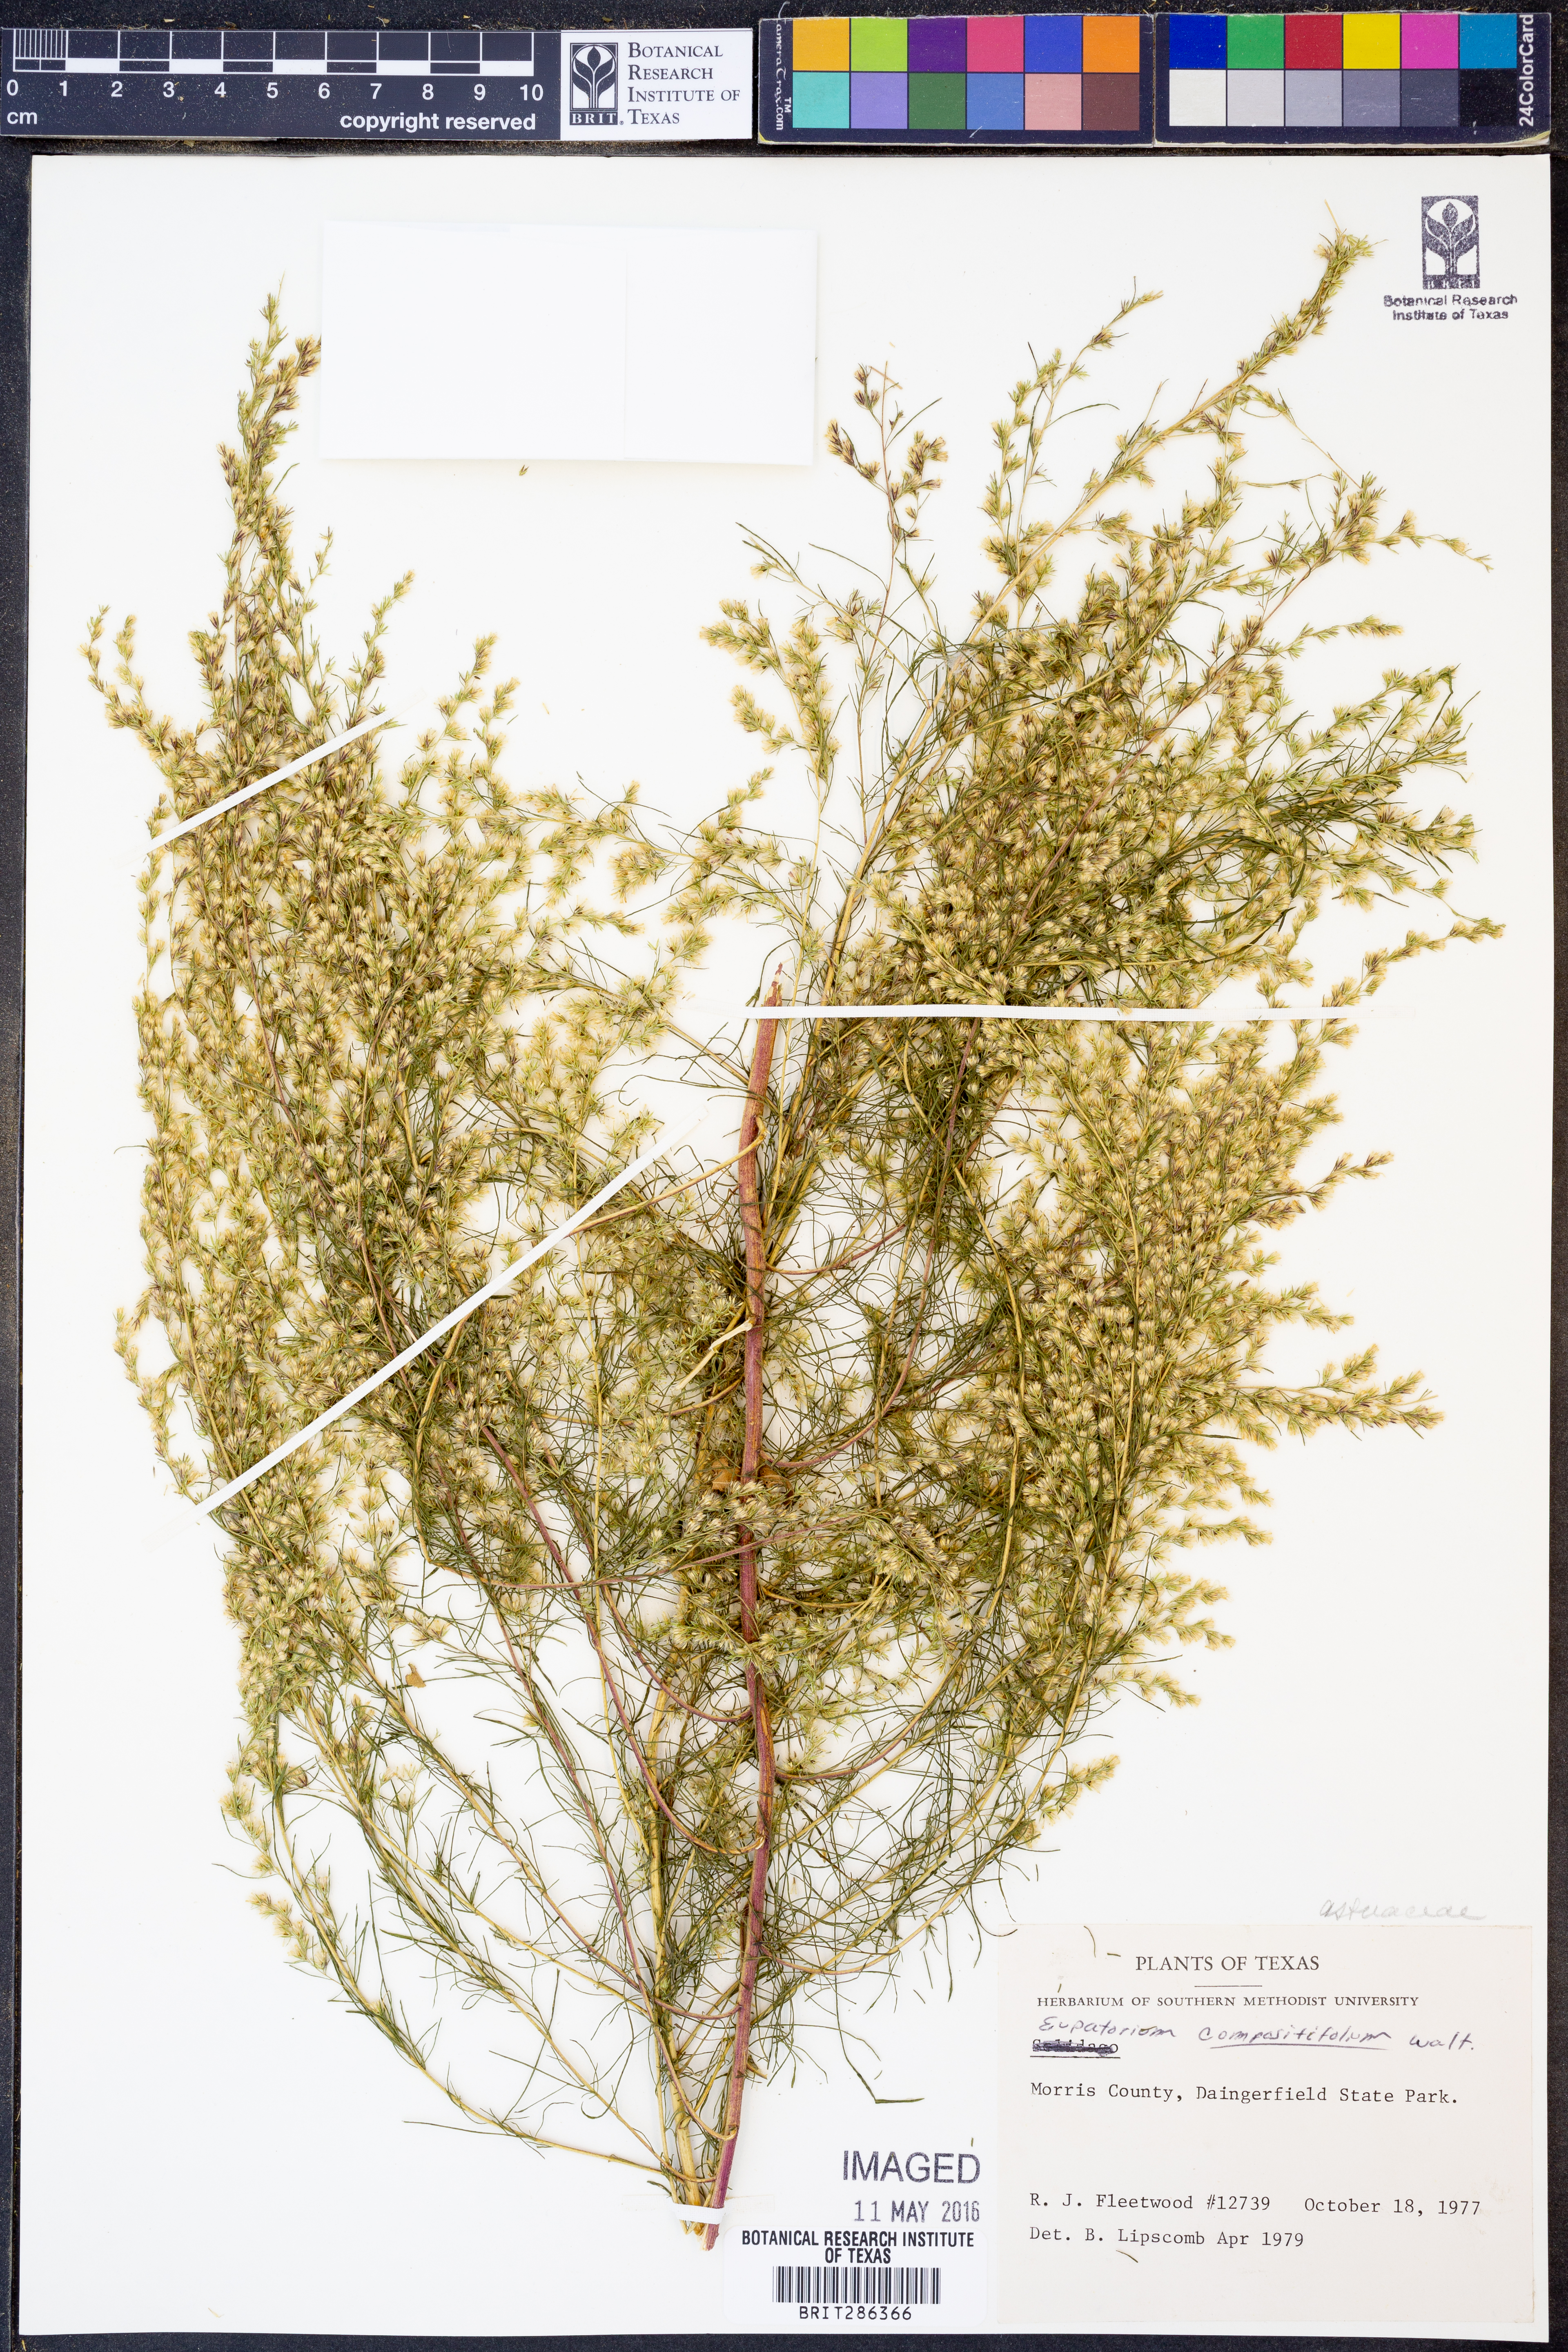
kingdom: Plantae
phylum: Tracheophyta
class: Magnoliopsida
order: Asterales
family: Asteraceae
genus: Eupatorium
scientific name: Eupatorium compositifolium
